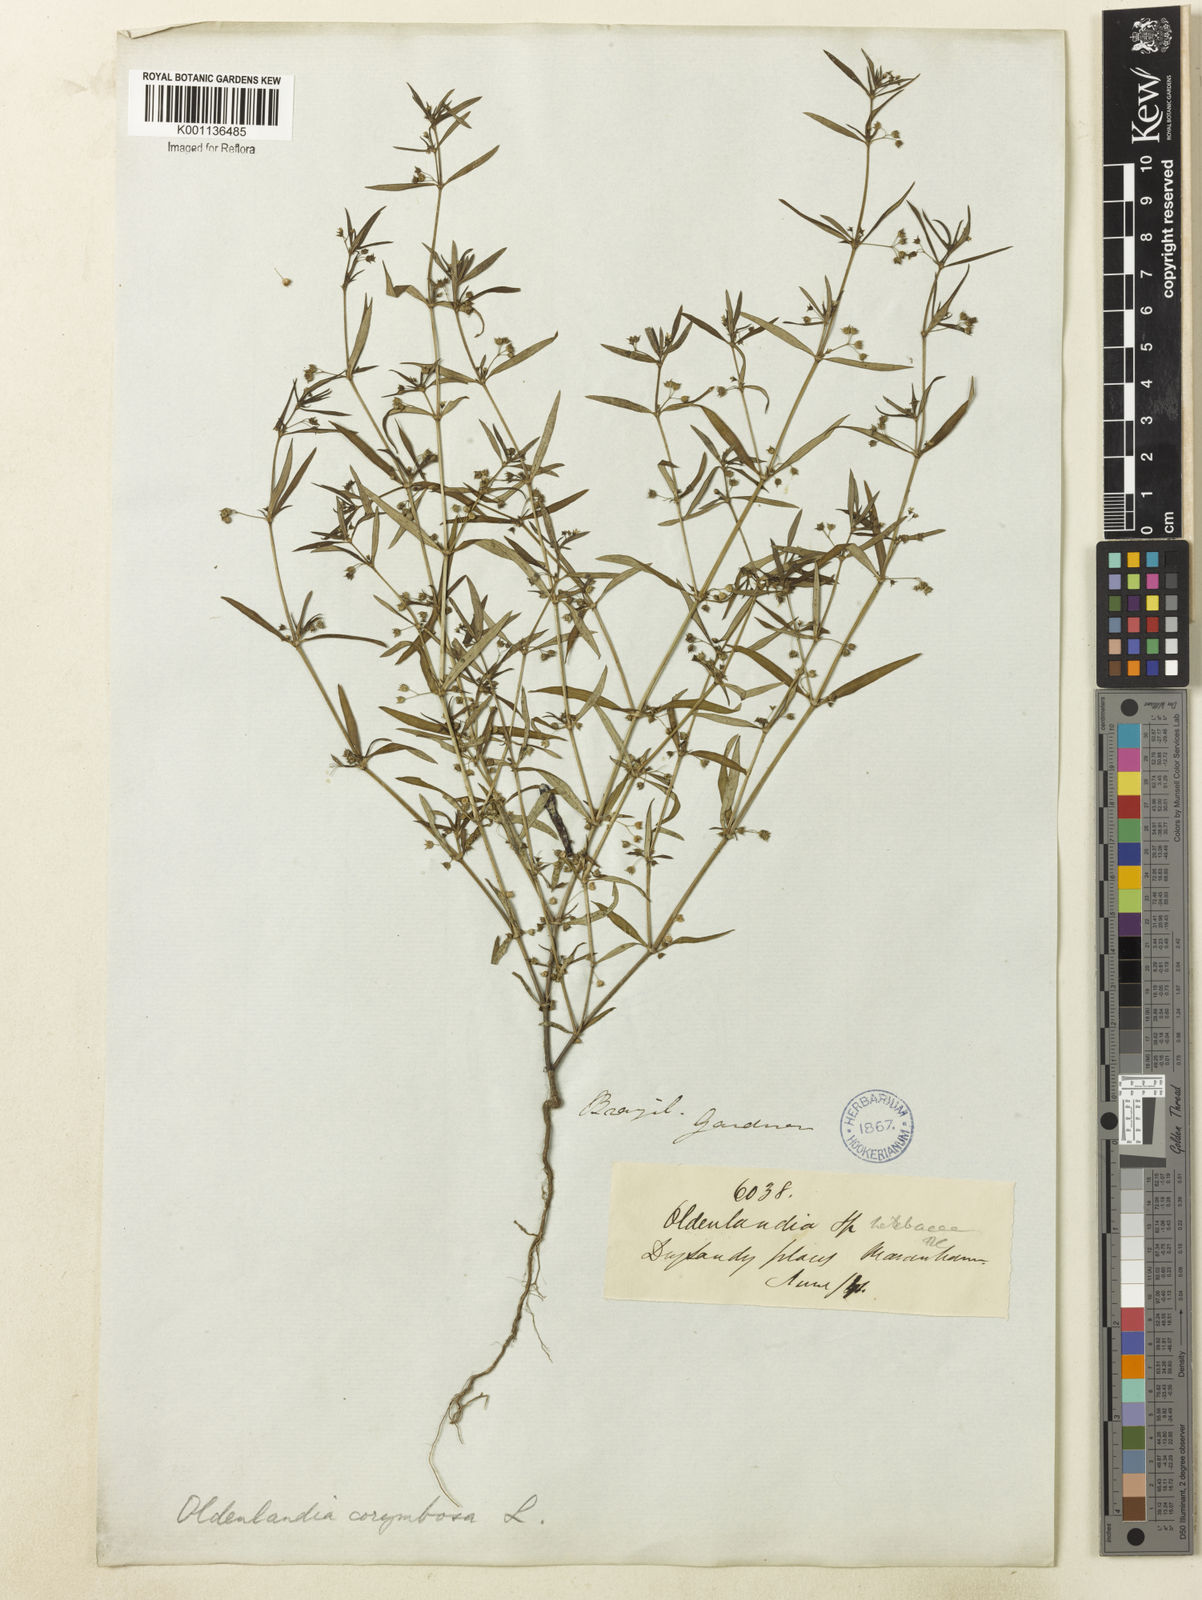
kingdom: Plantae
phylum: Tracheophyta
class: Magnoliopsida
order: Gentianales
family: Rubiaceae
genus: Oldenlandia
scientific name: Oldenlandia corymbosa
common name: Flat-top mille graines
